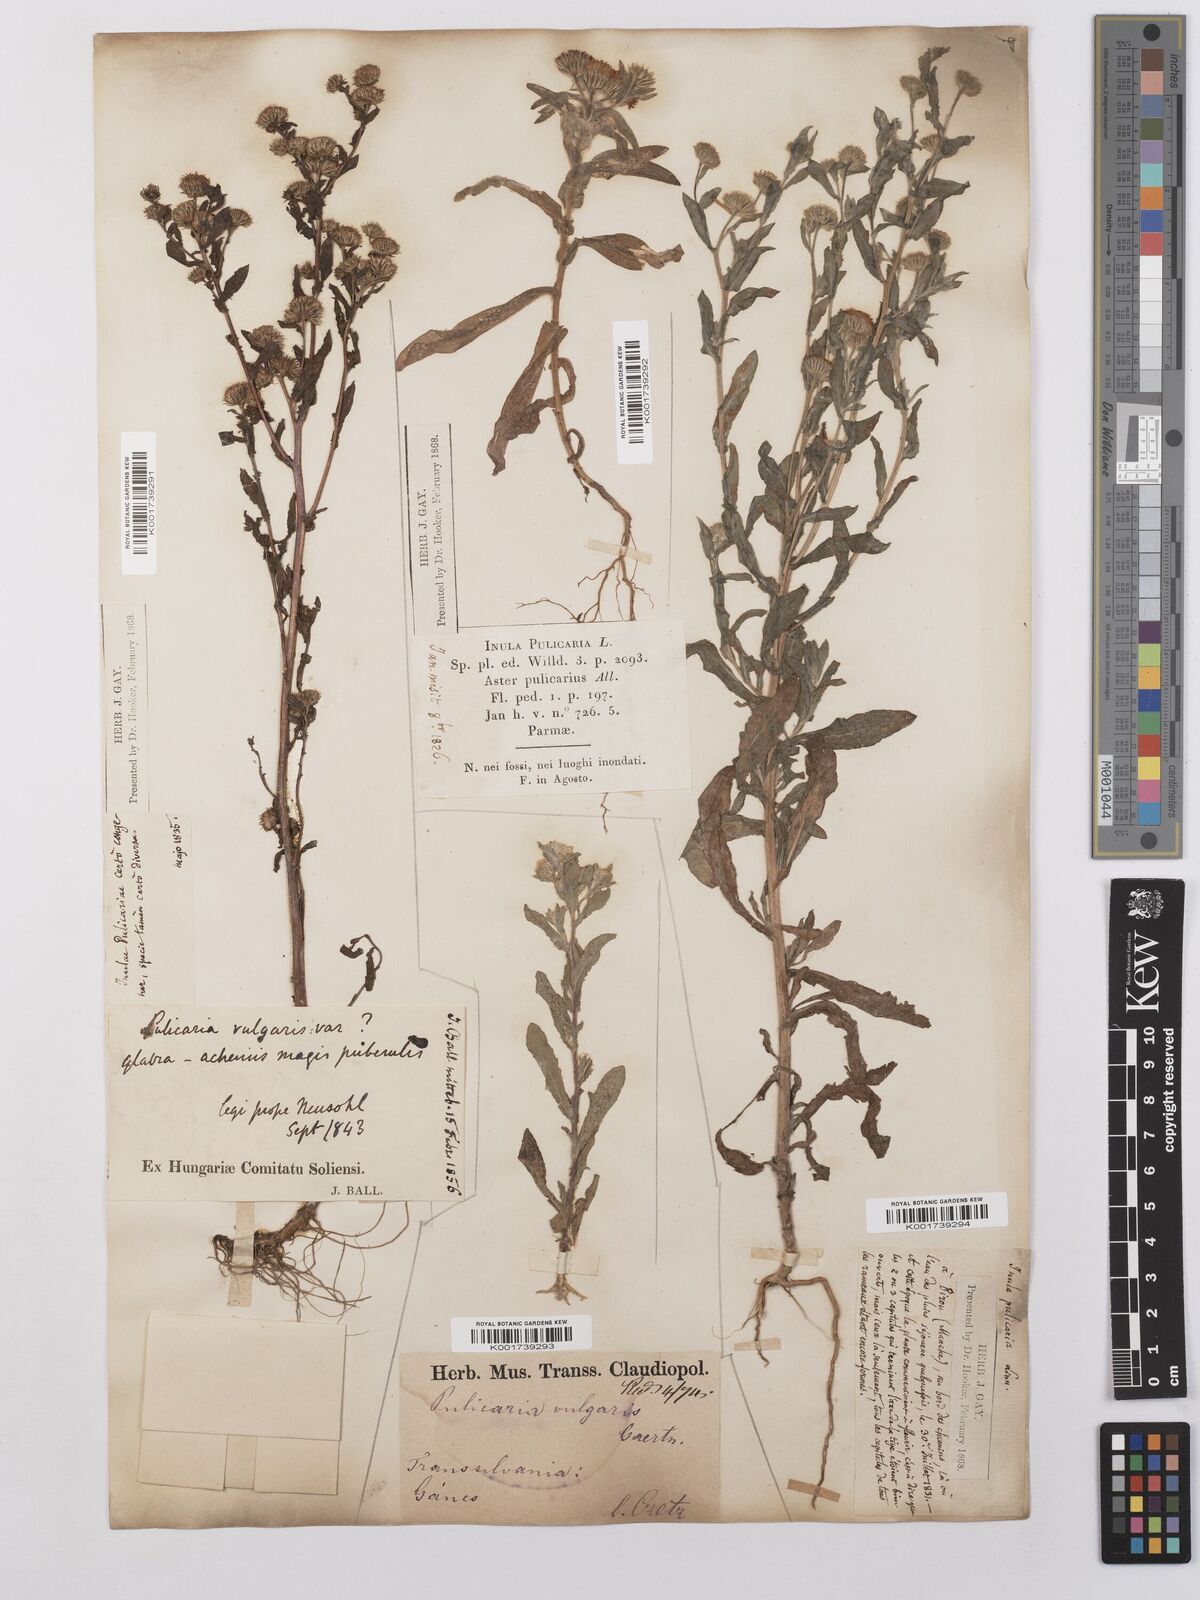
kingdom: Plantae
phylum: Tracheophyta
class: Magnoliopsida
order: Asterales
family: Asteraceae
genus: Pulicaria
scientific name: Pulicaria vulgaris
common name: Small fleabane
